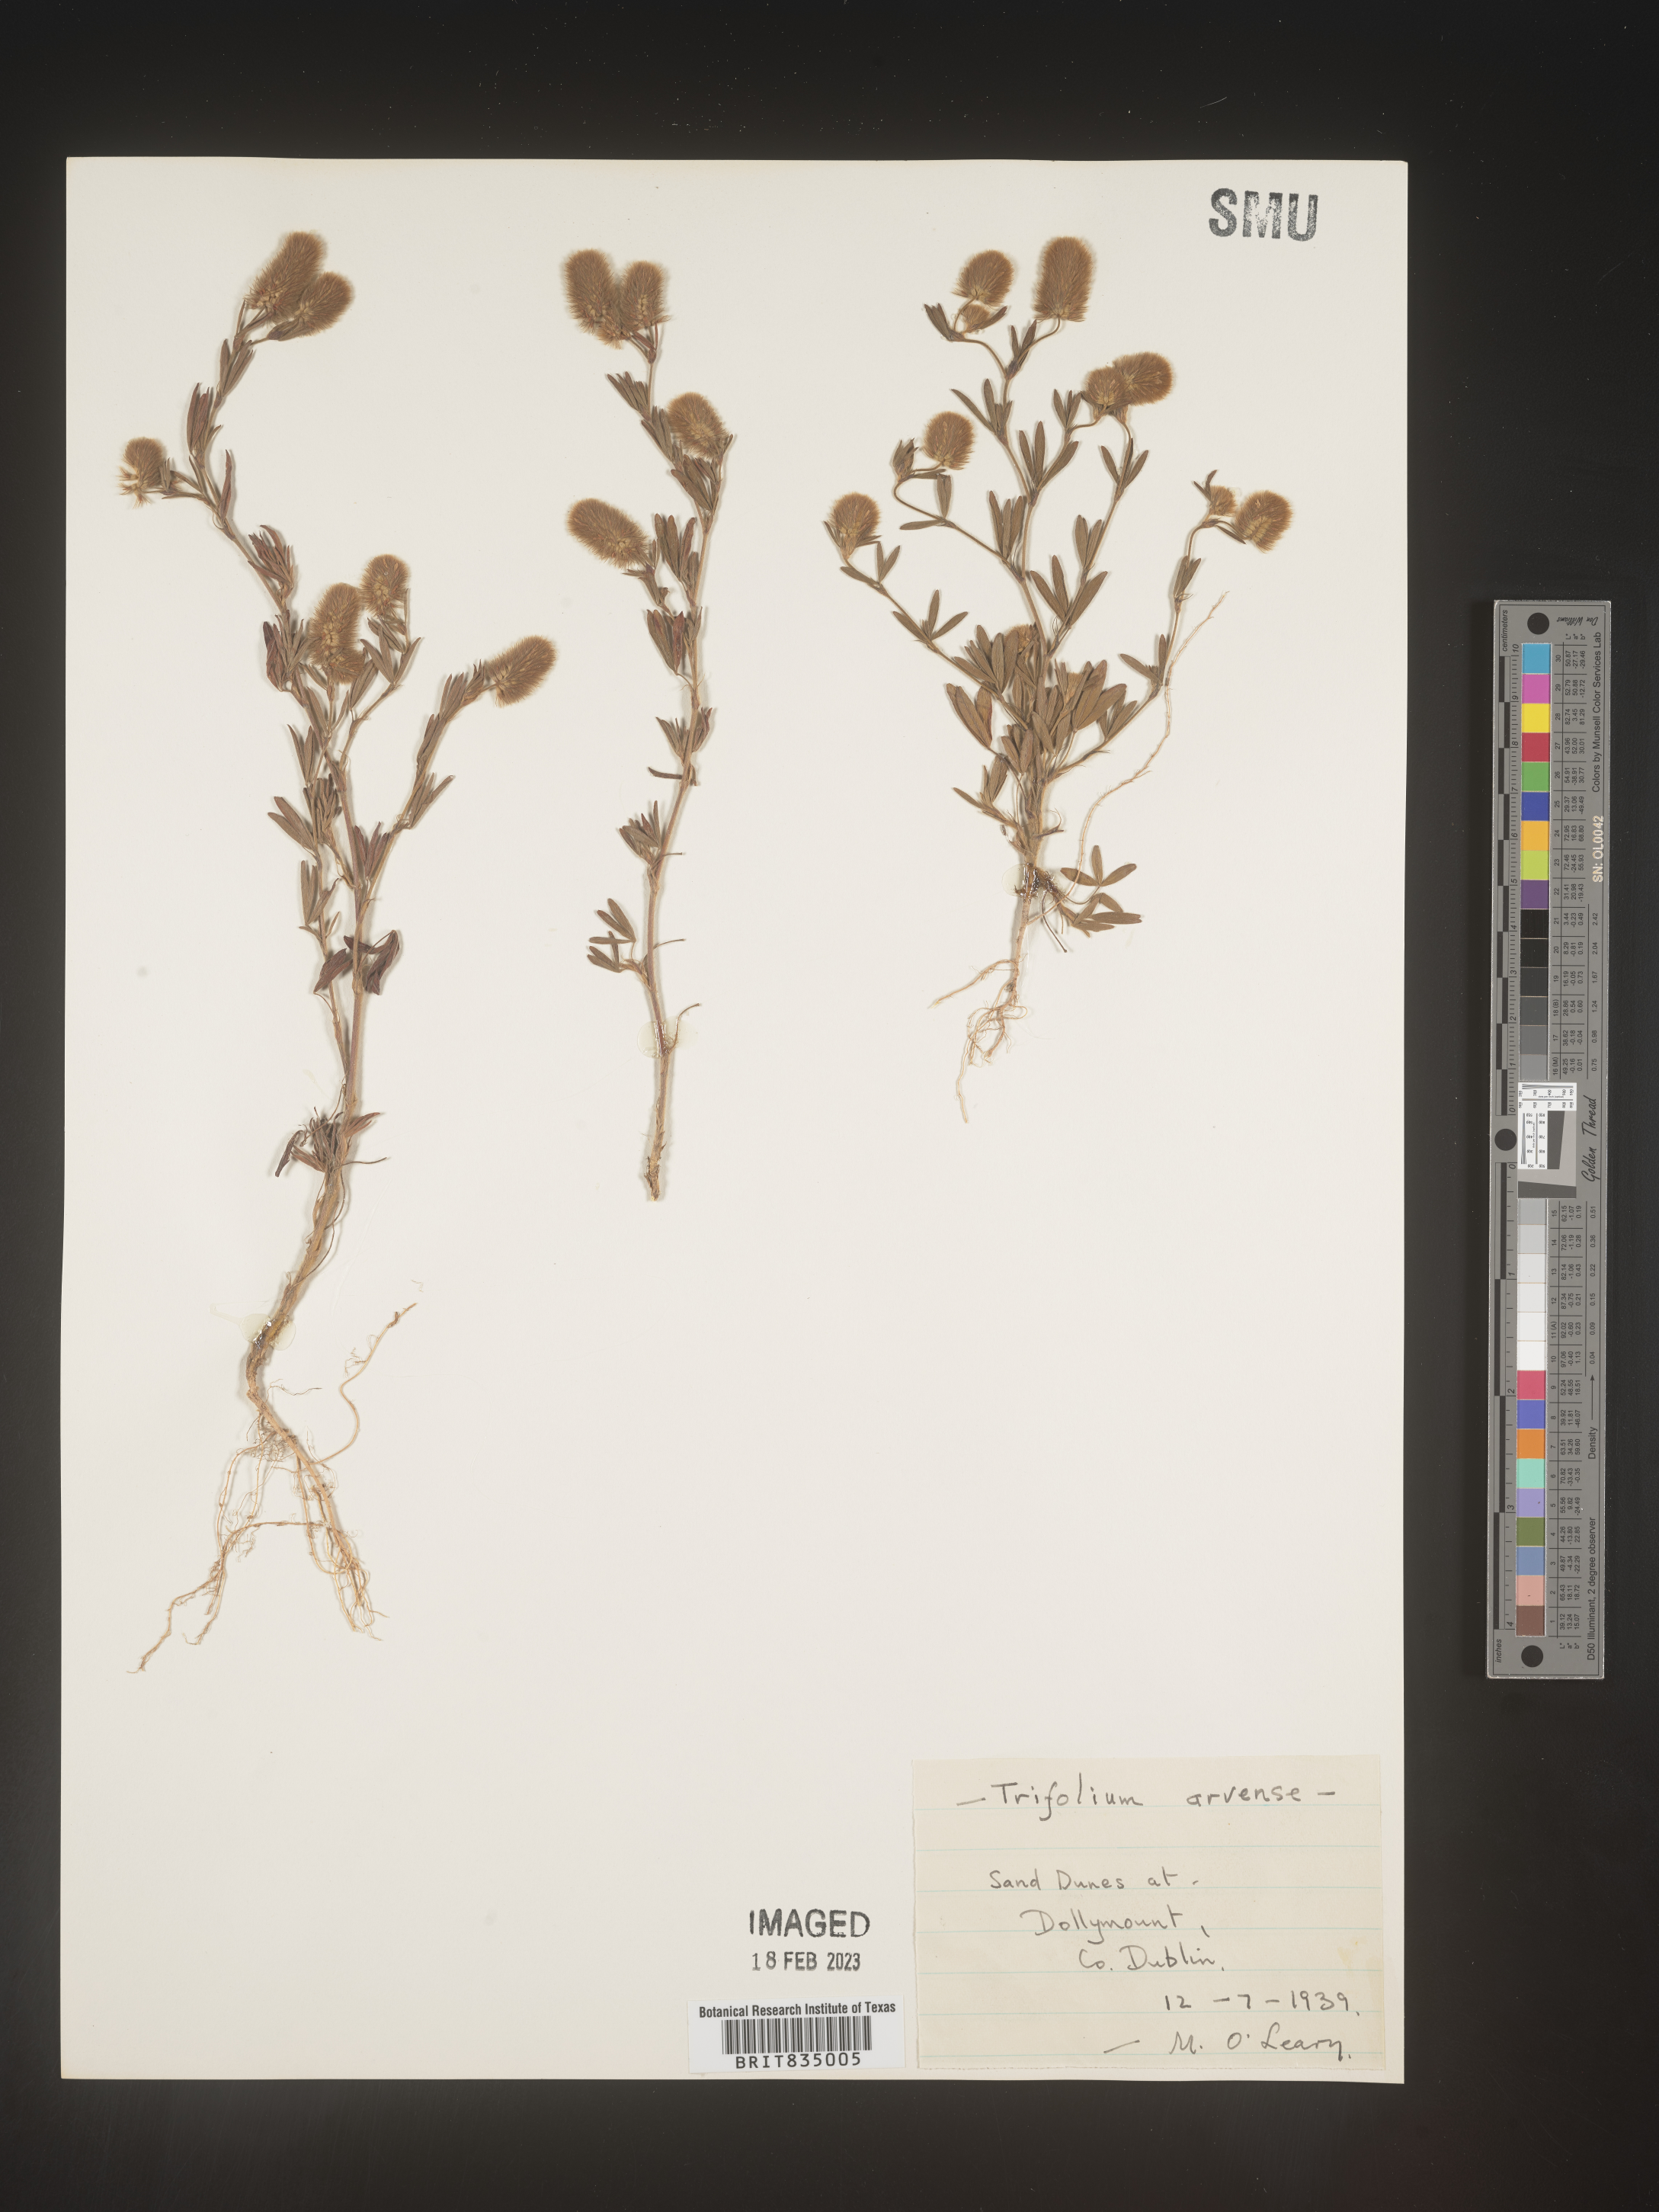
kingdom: Plantae
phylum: Tracheophyta
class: Magnoliopsida
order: Fabales
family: Fabaceae
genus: Trifolium
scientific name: Trifolium
